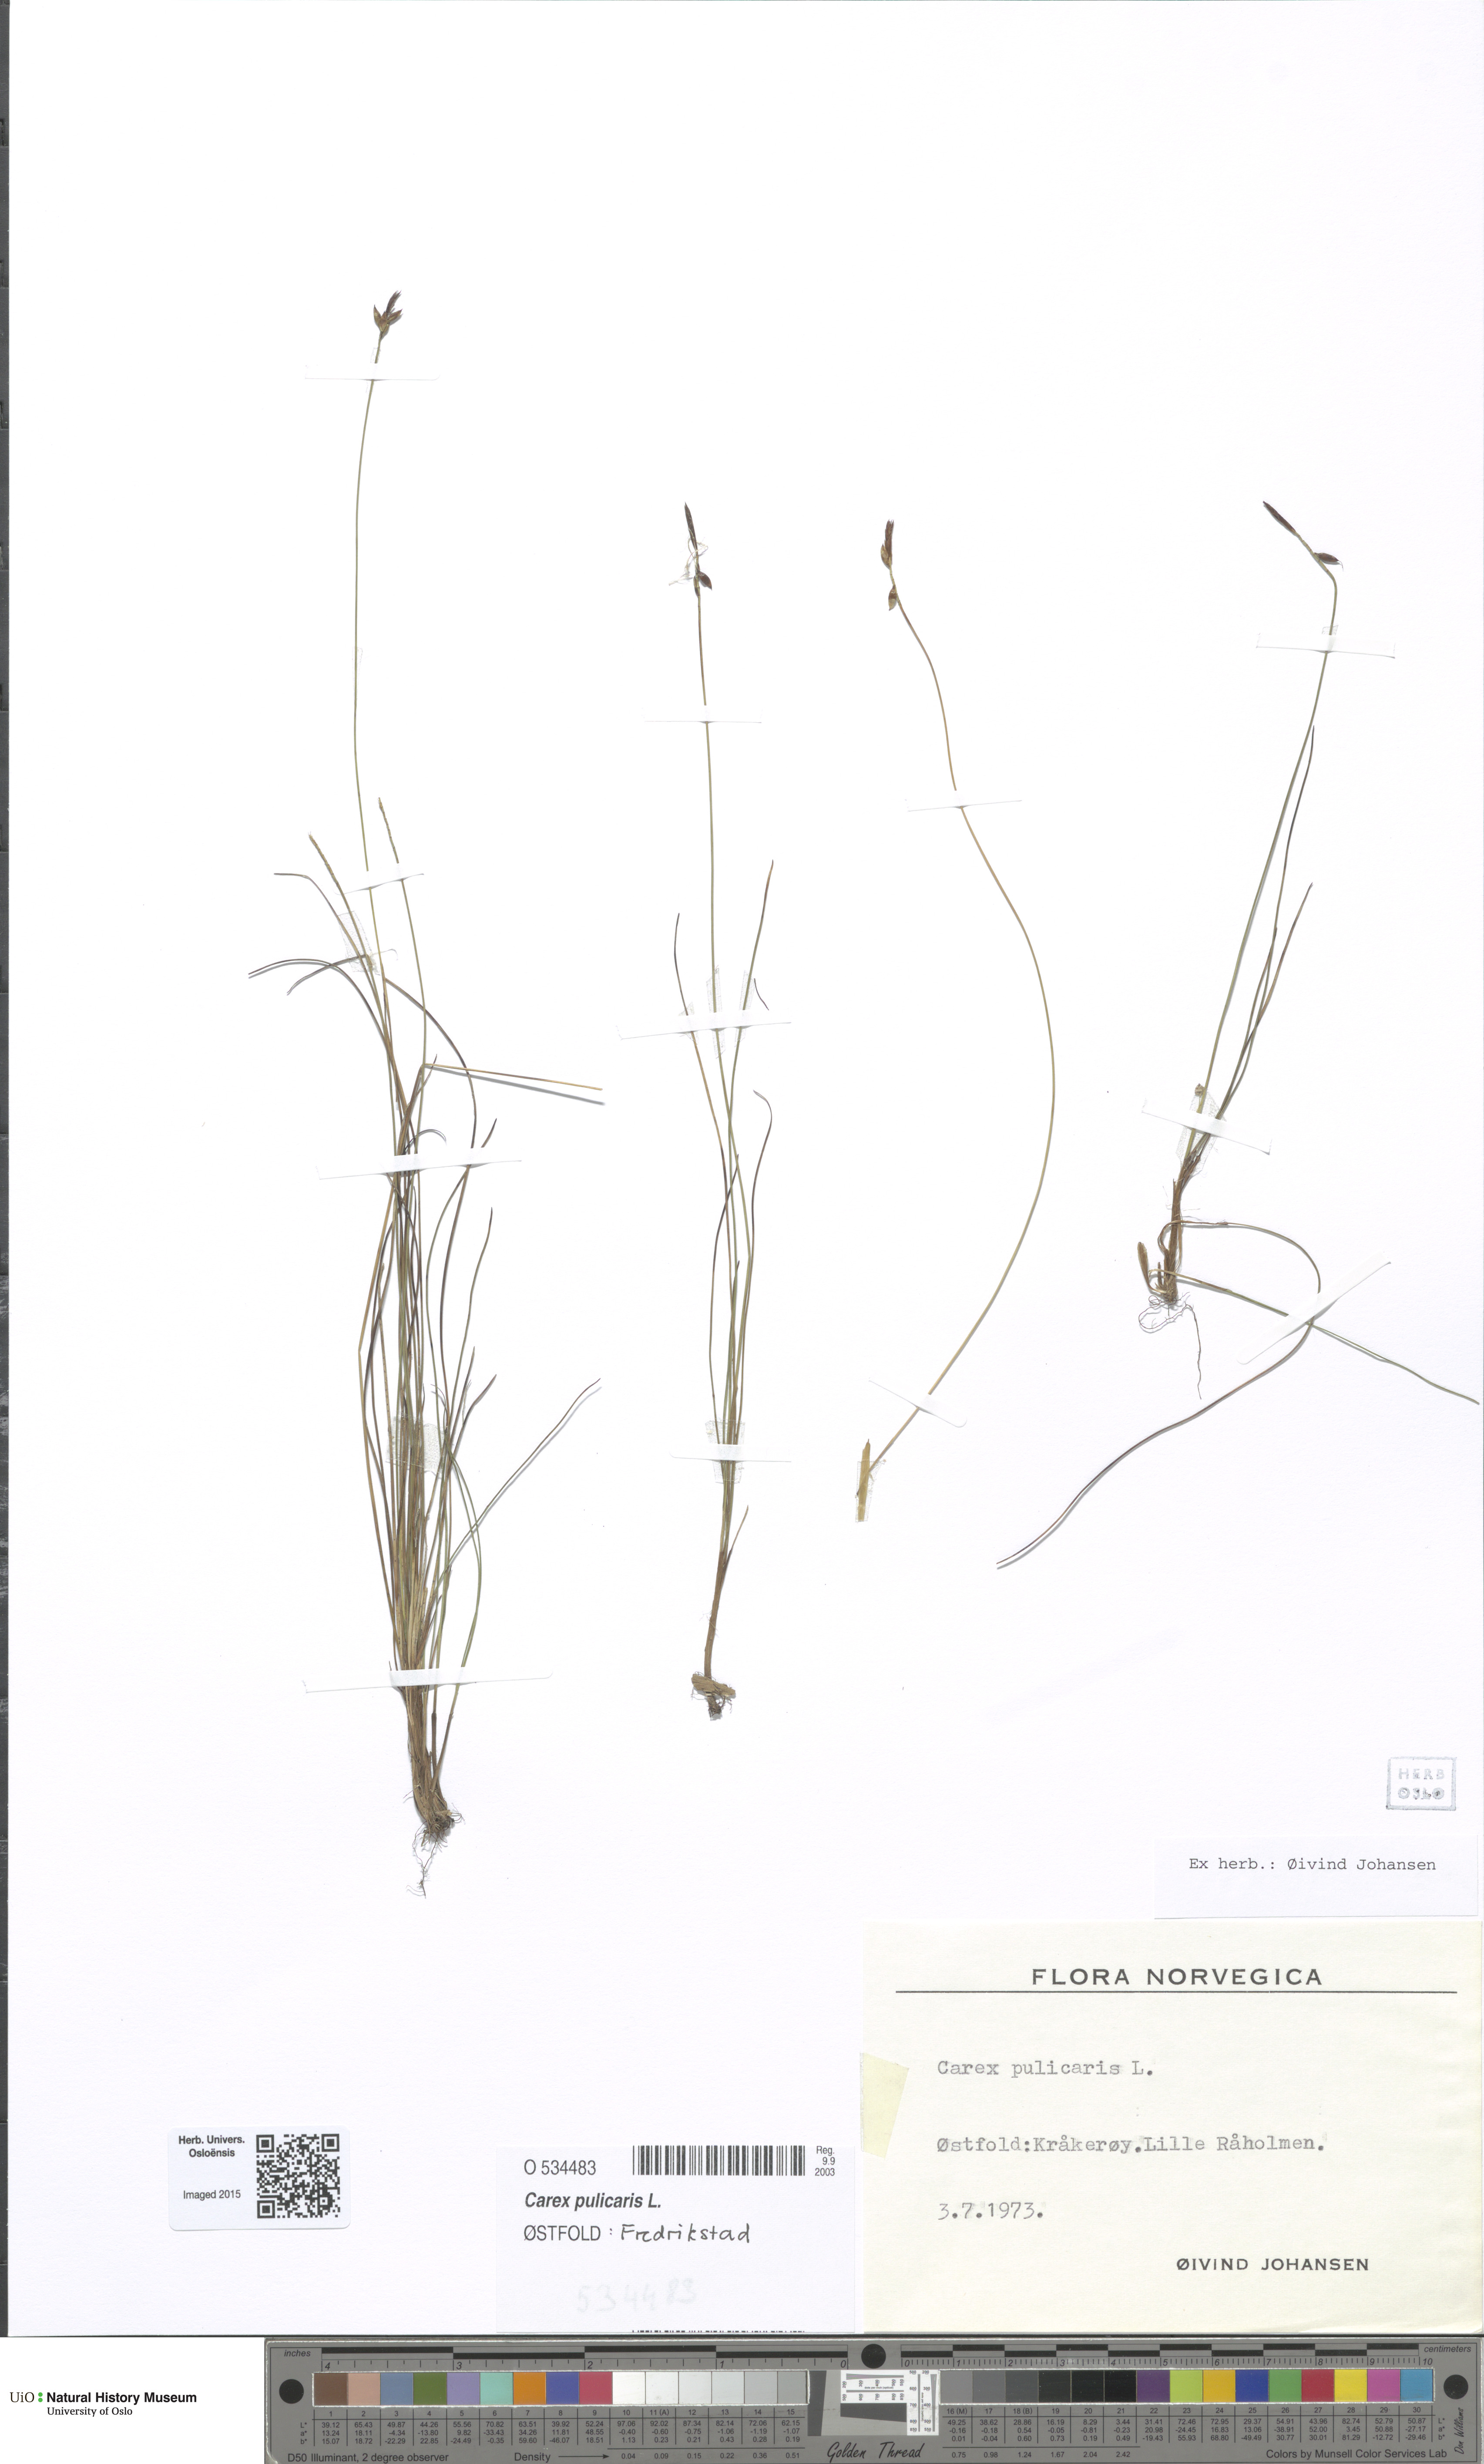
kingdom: Plantae
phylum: Tracheophyta
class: Liliopsida
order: Poales
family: Cyperaceae
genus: Carex
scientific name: Carex pulicaris
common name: Flea sedge
